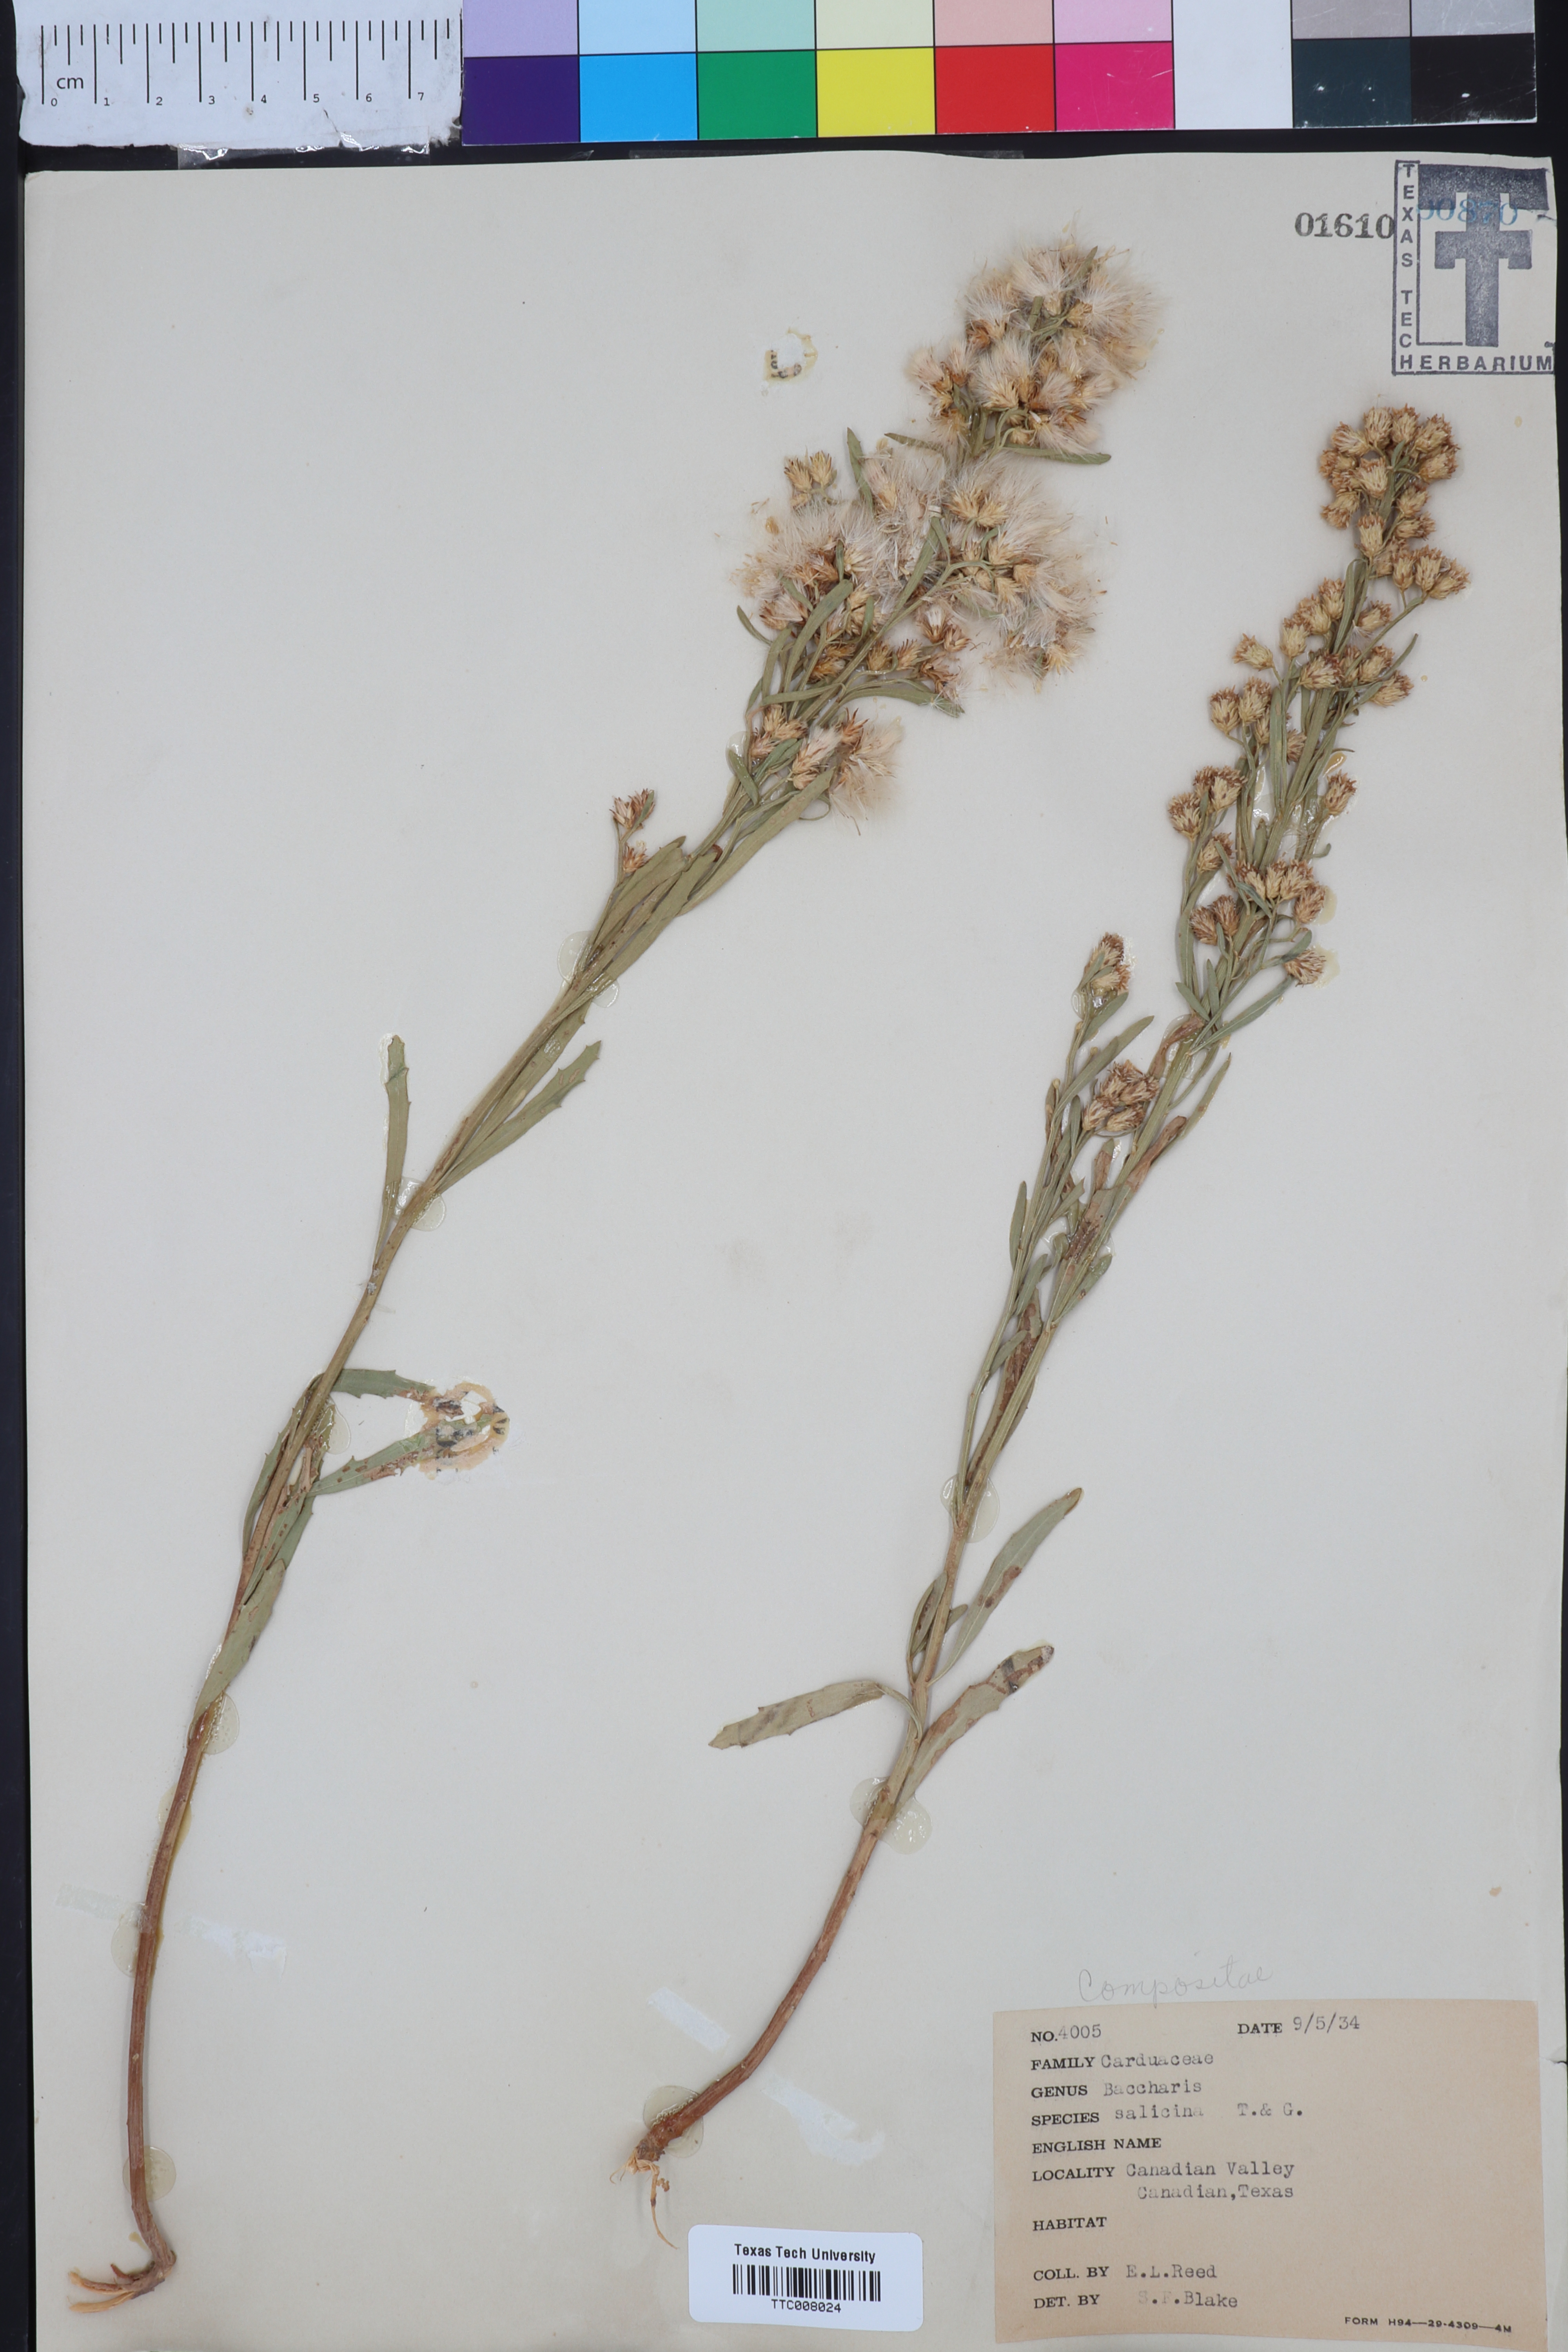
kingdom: Plantae
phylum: Tracheophyta
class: Magnoliopsida
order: Asterales
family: Asteraceae
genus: Baccharis
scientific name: Baccharis salicina
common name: Willow baccharis
